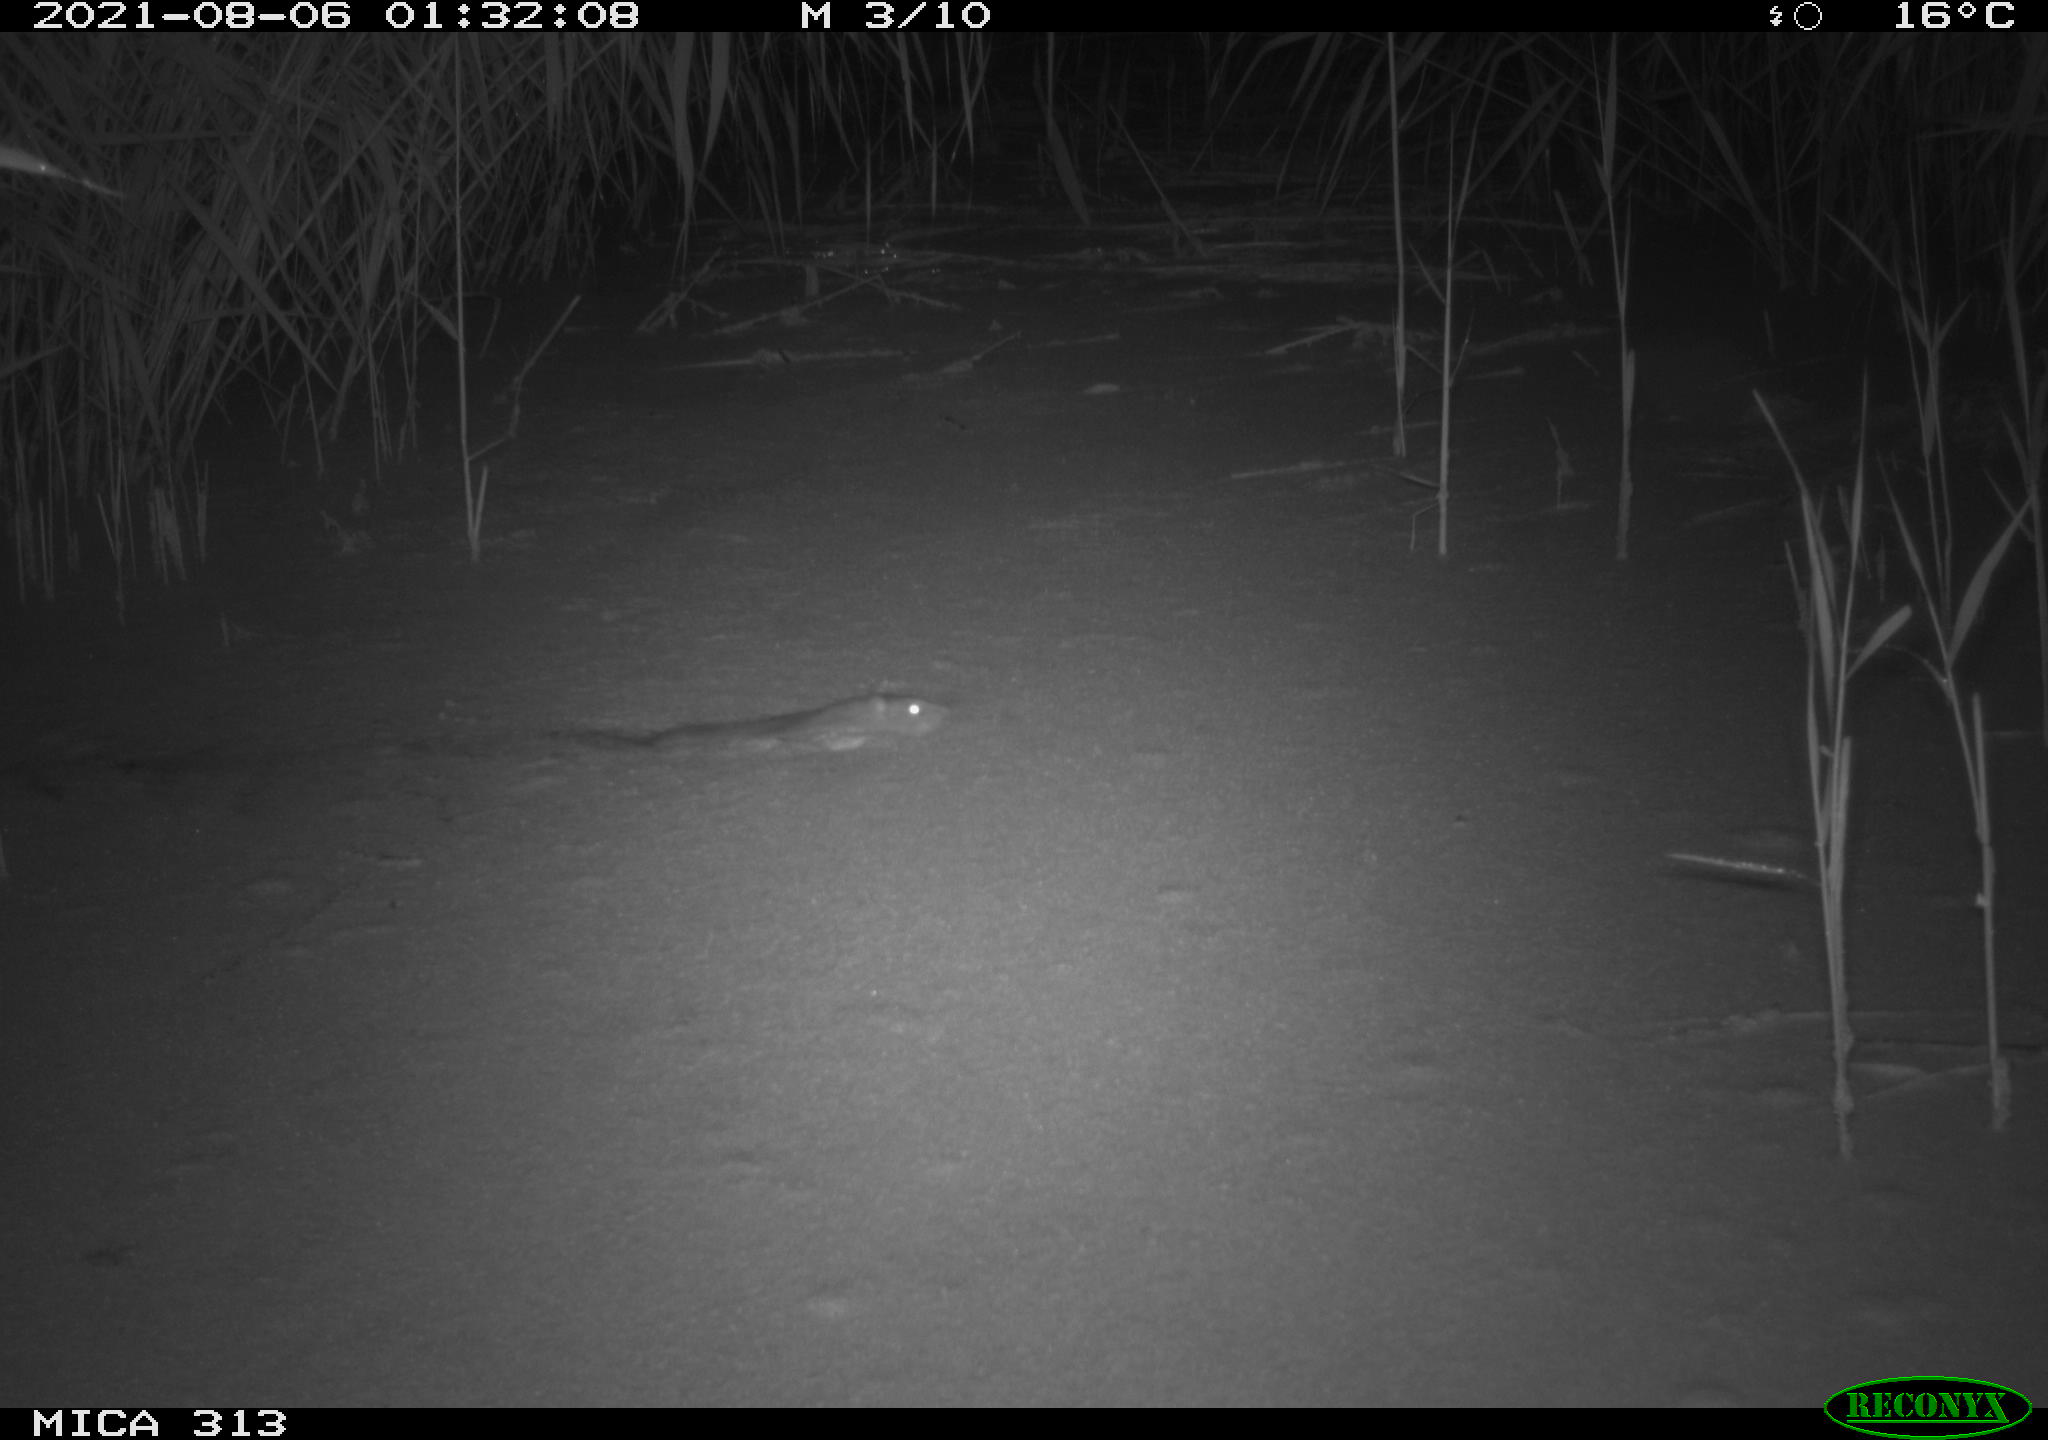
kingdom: Animalia
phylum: Chordata
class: Mammalia
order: Rodentia
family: Muridae
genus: Rattus
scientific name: Rattus norvegicus
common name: Brown rat
